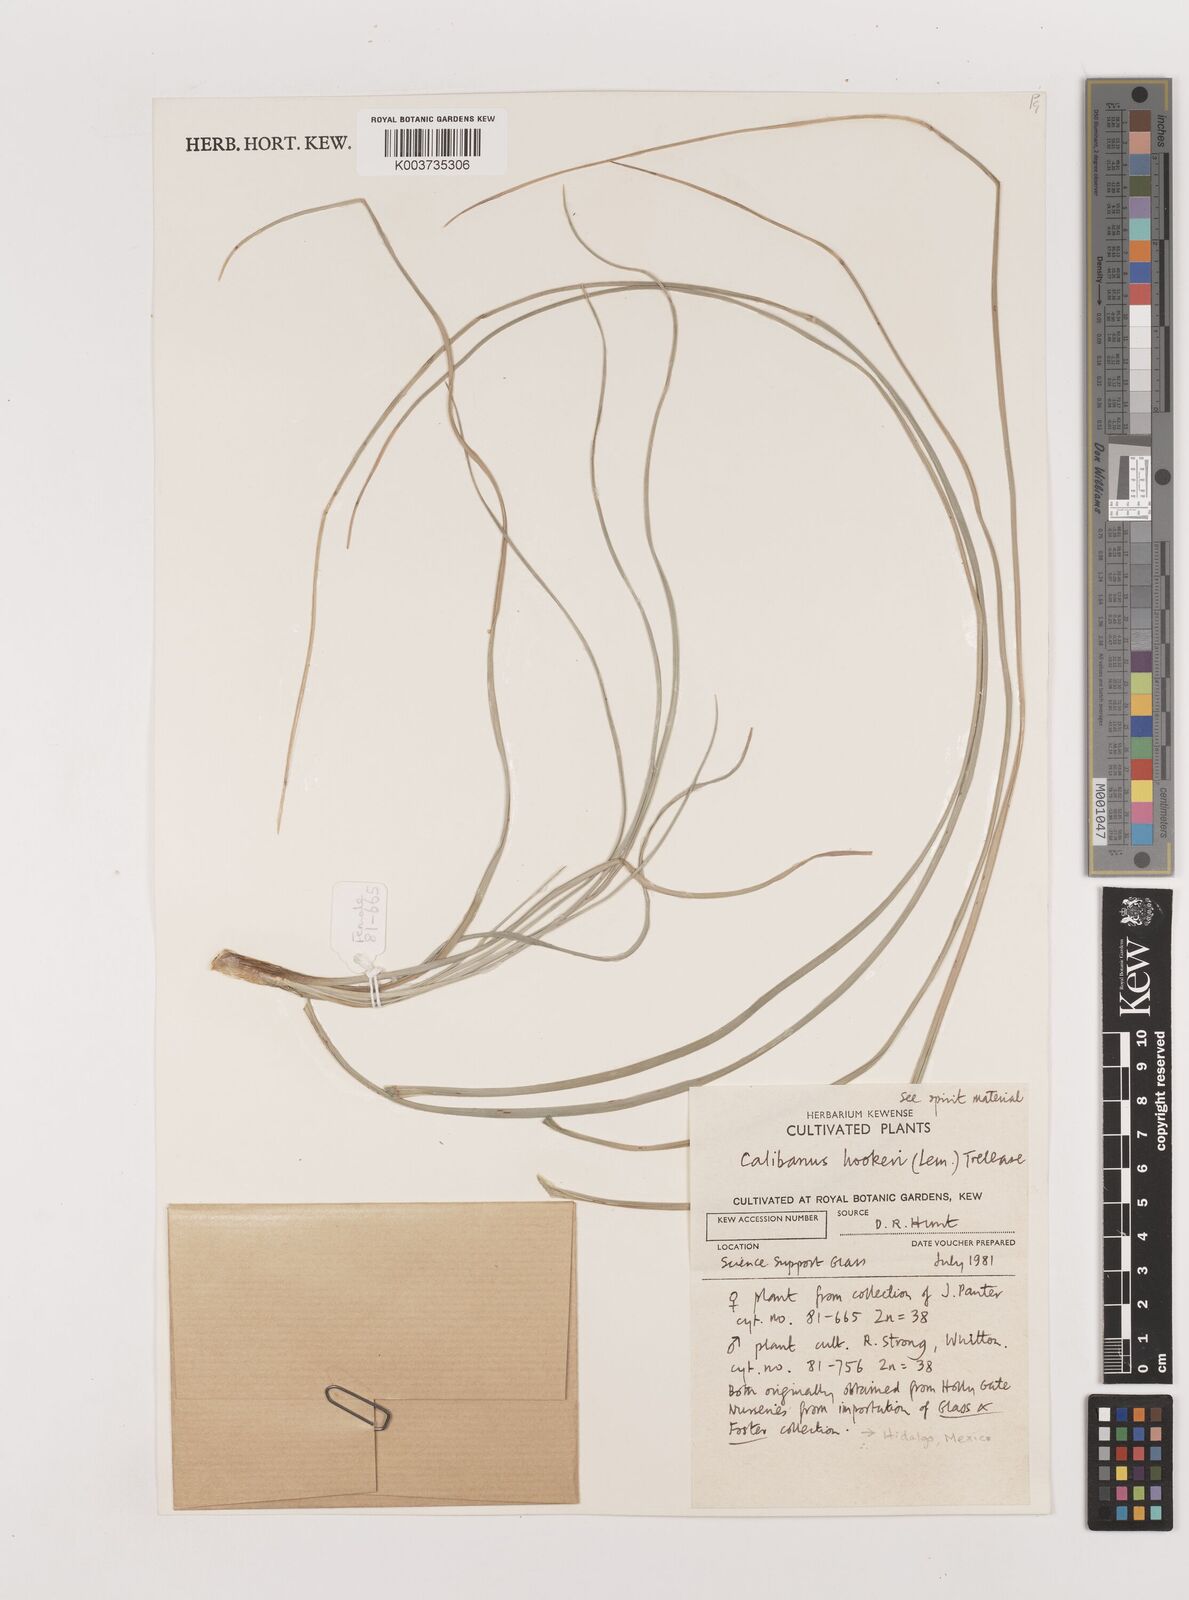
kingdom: Plantae
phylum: Tracheophyta
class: Liliopsida
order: Asparagales
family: Asparagaceae
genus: Beaucarnea
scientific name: Beaucarnea hookeri
